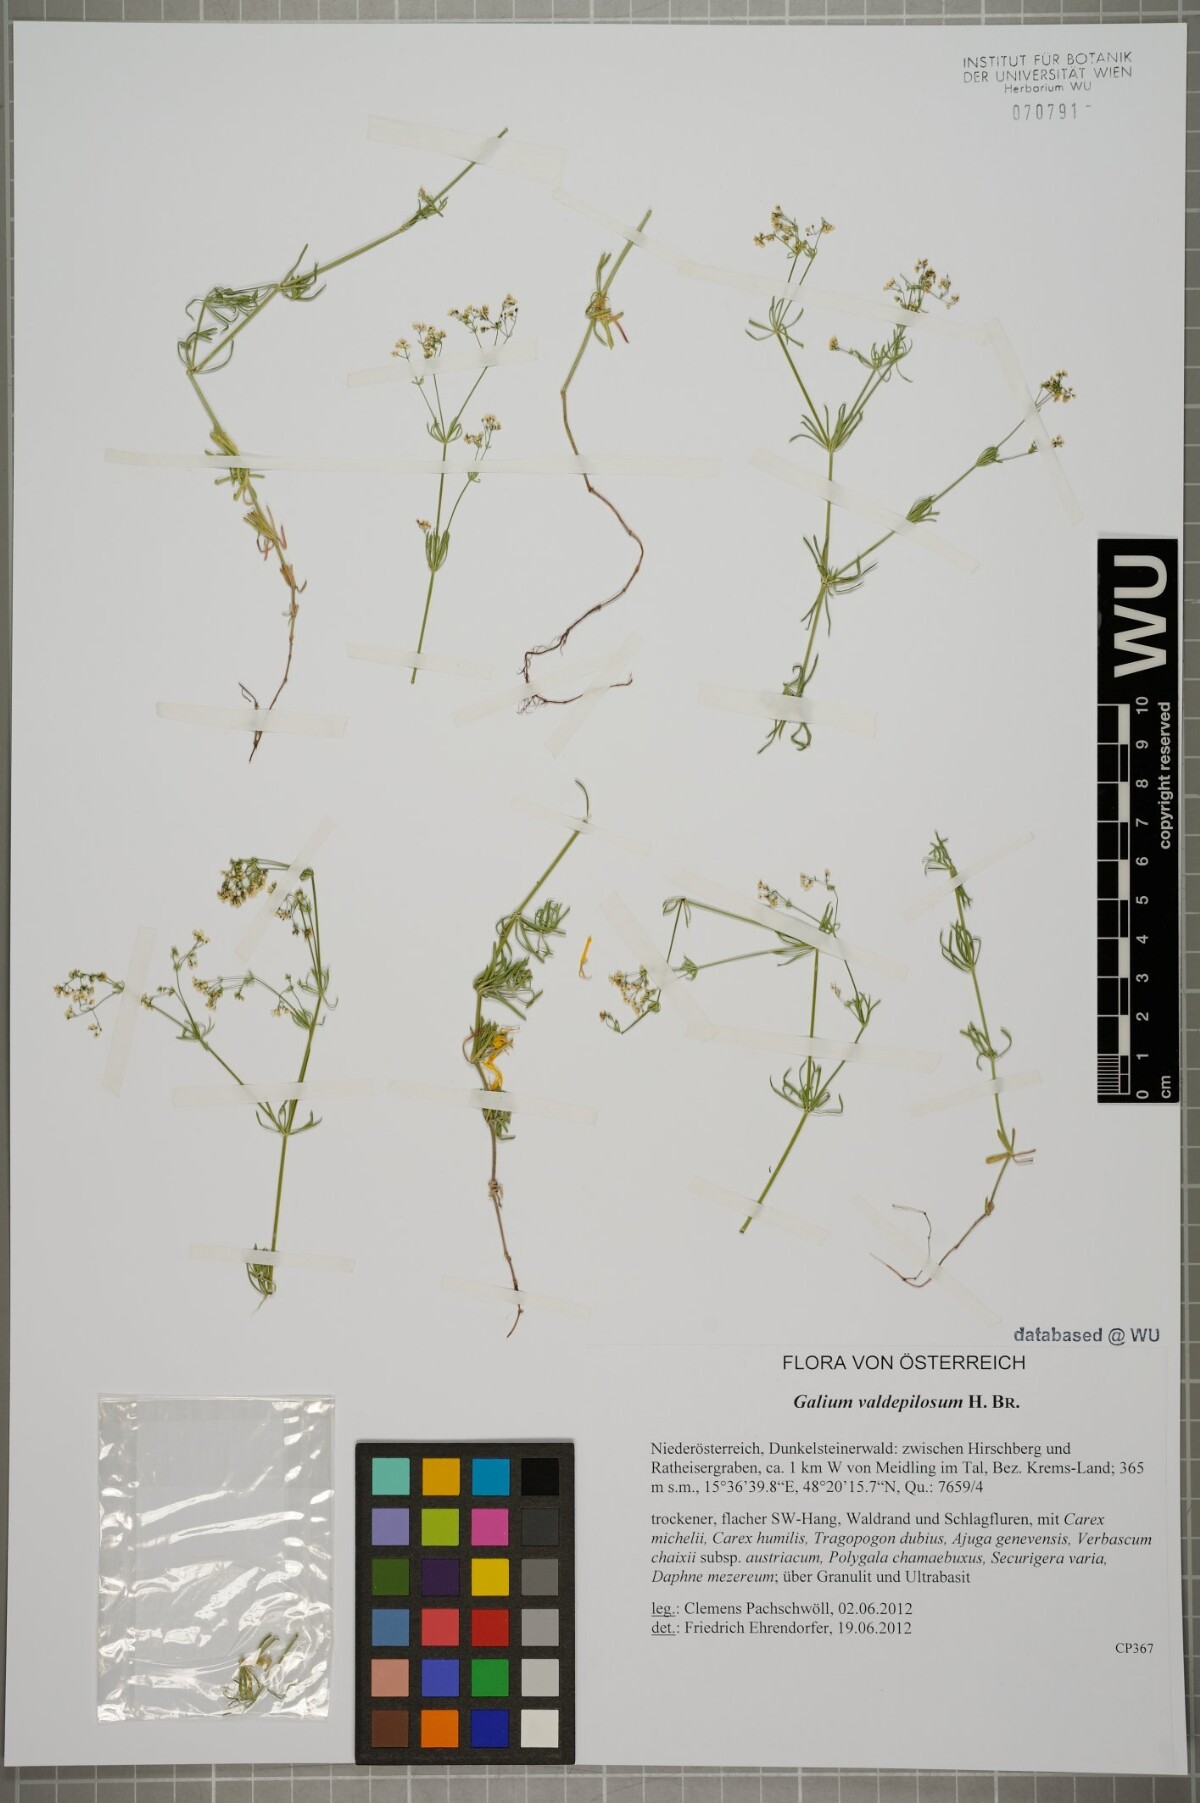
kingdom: Plantae
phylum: Tracheophyta
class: Magnoliopsida
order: Gentianales
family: Rubiaceae
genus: Galium
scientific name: Galium valdepilosum
